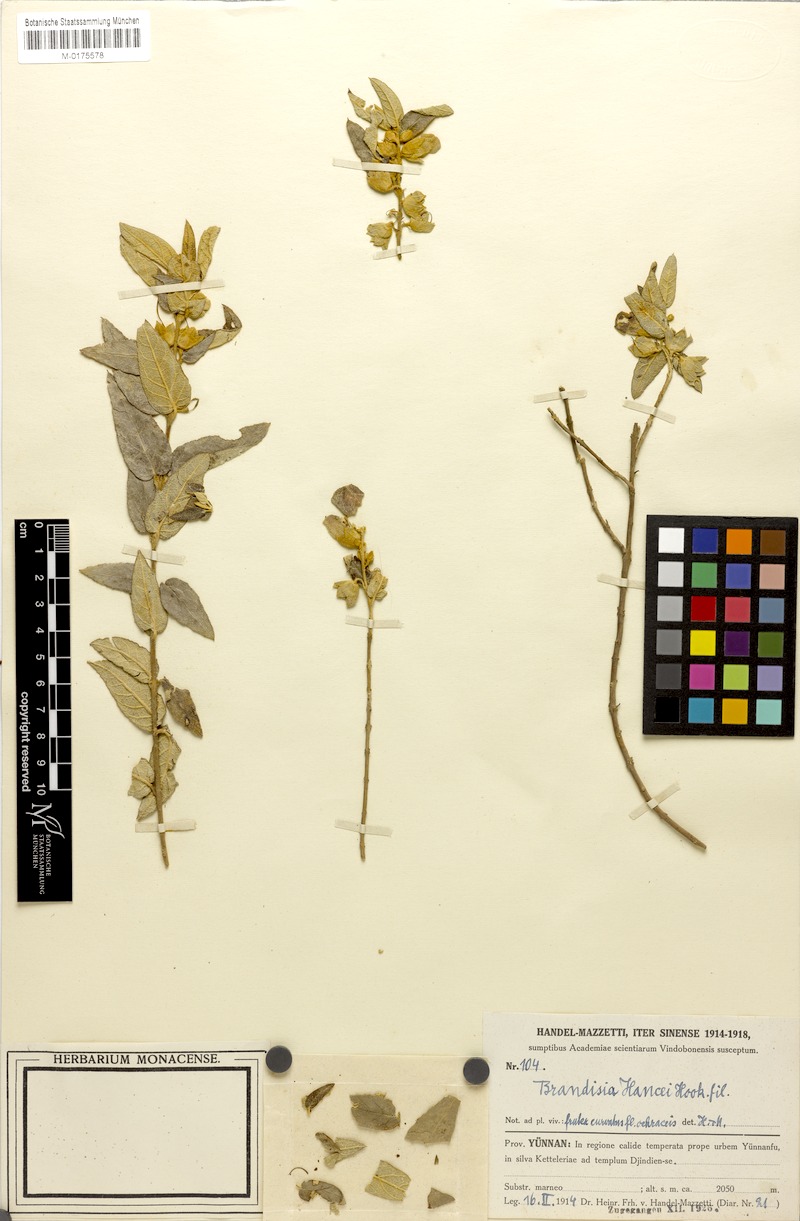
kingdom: Plantae
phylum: Tracheophyta
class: Magnoliopsida
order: Lamiales
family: Orobanchaceae
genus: Brandisia
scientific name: Brandisia hancei
